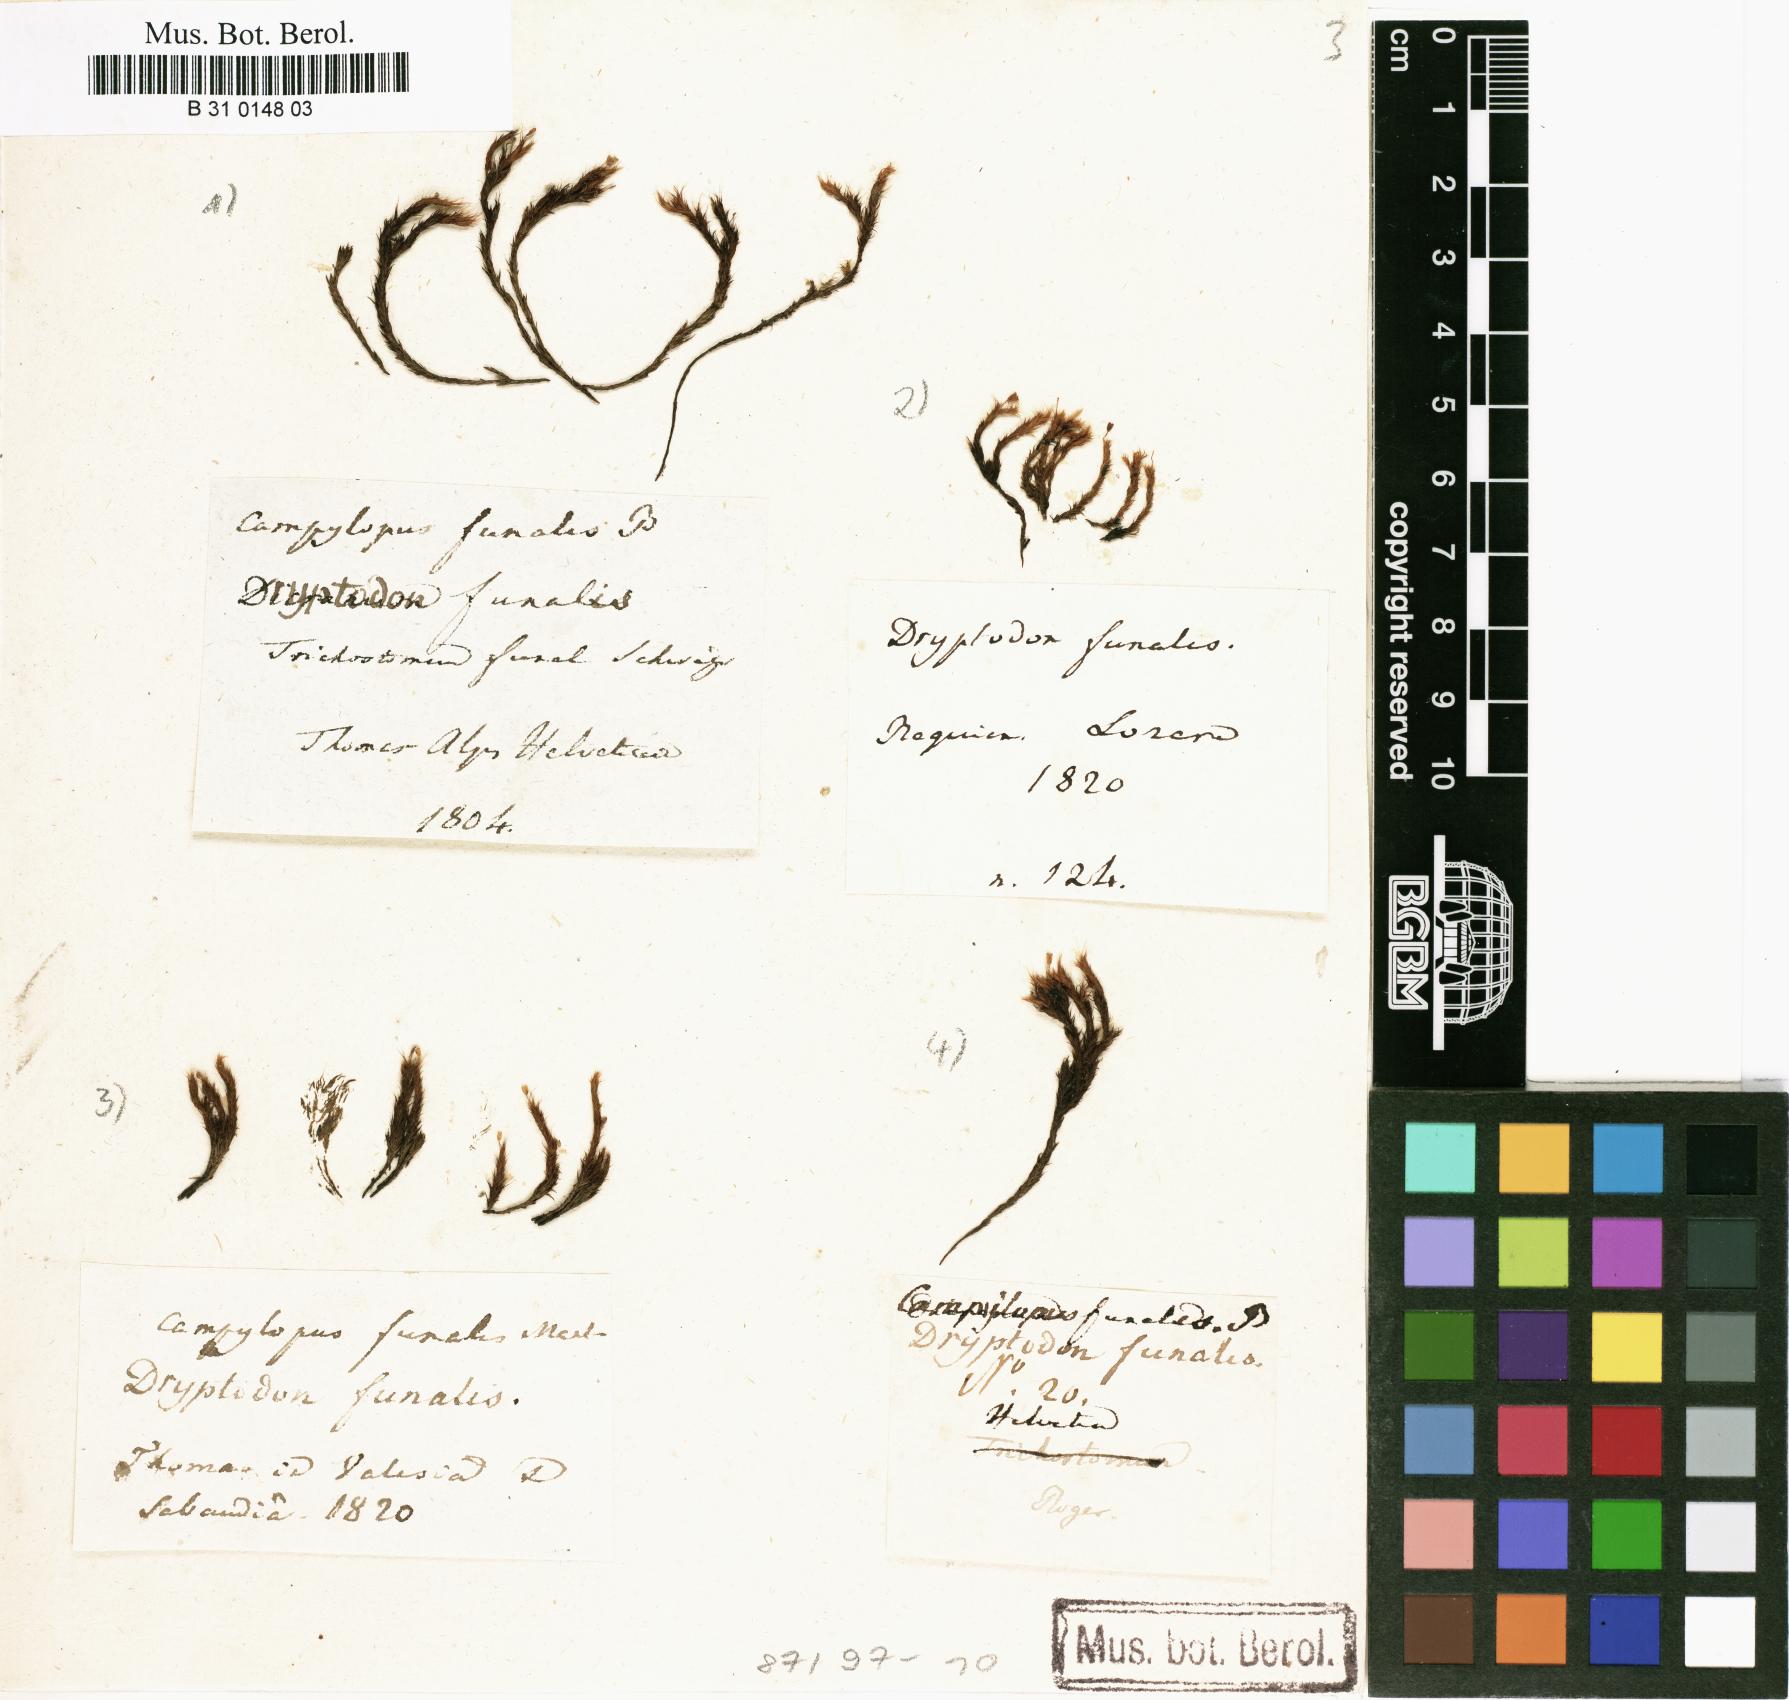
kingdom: Plantae
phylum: Bryophyta
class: Bryopsida
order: Grimmiales
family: Grimmiaceae
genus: Grimmia
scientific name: Grimmia funalis
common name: String grimmia
